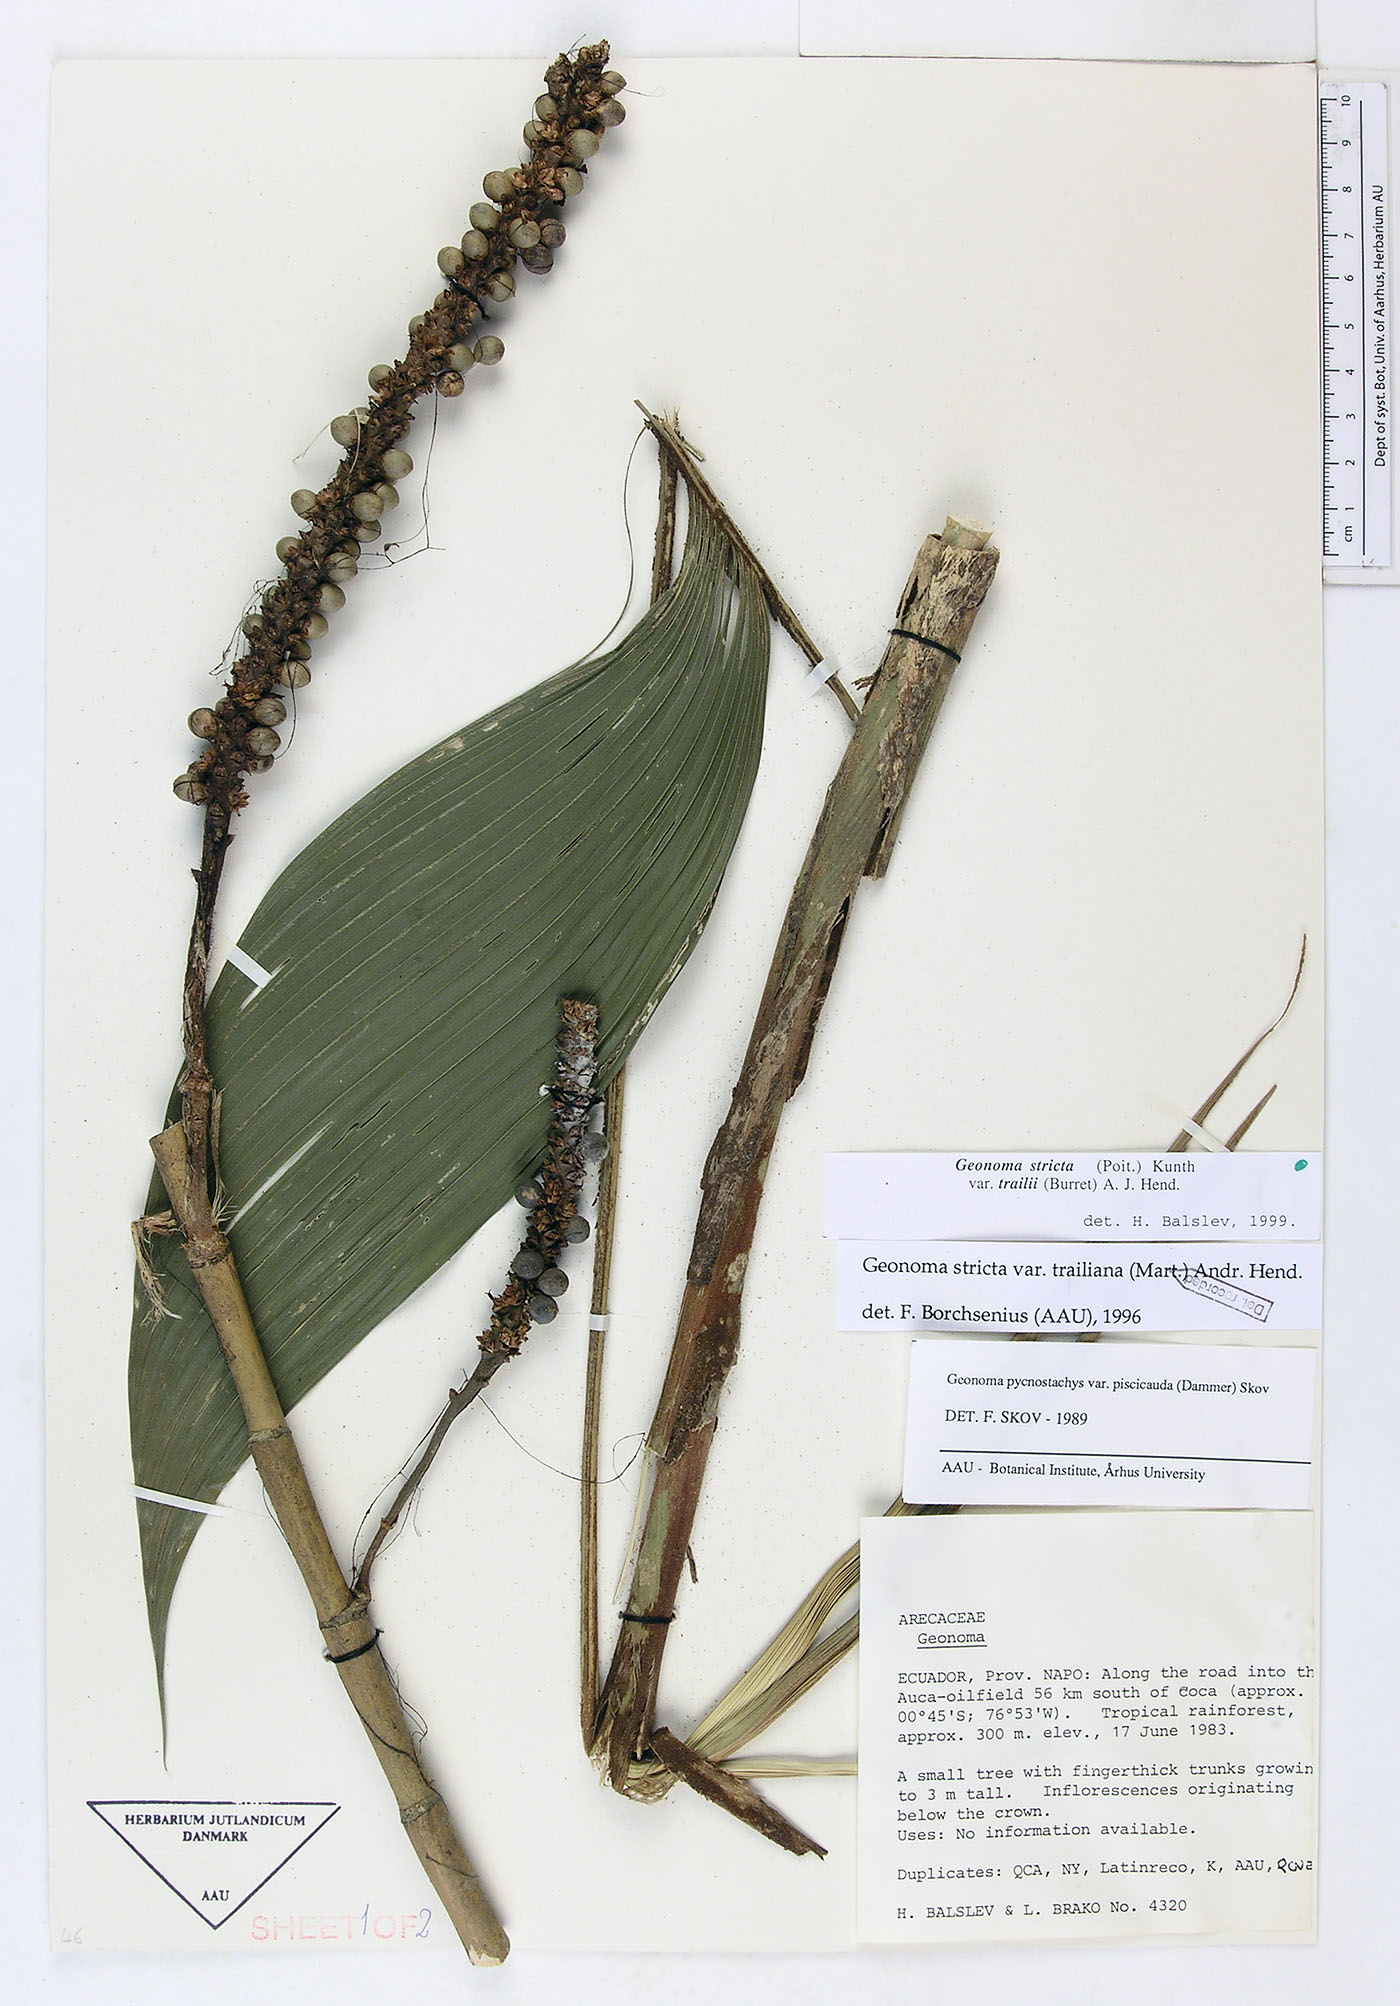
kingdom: Plantae
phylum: Tracheophyta
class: Liliopsida
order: Arecales
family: Arecaceae
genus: Geonoma
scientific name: Geonoma stricta
